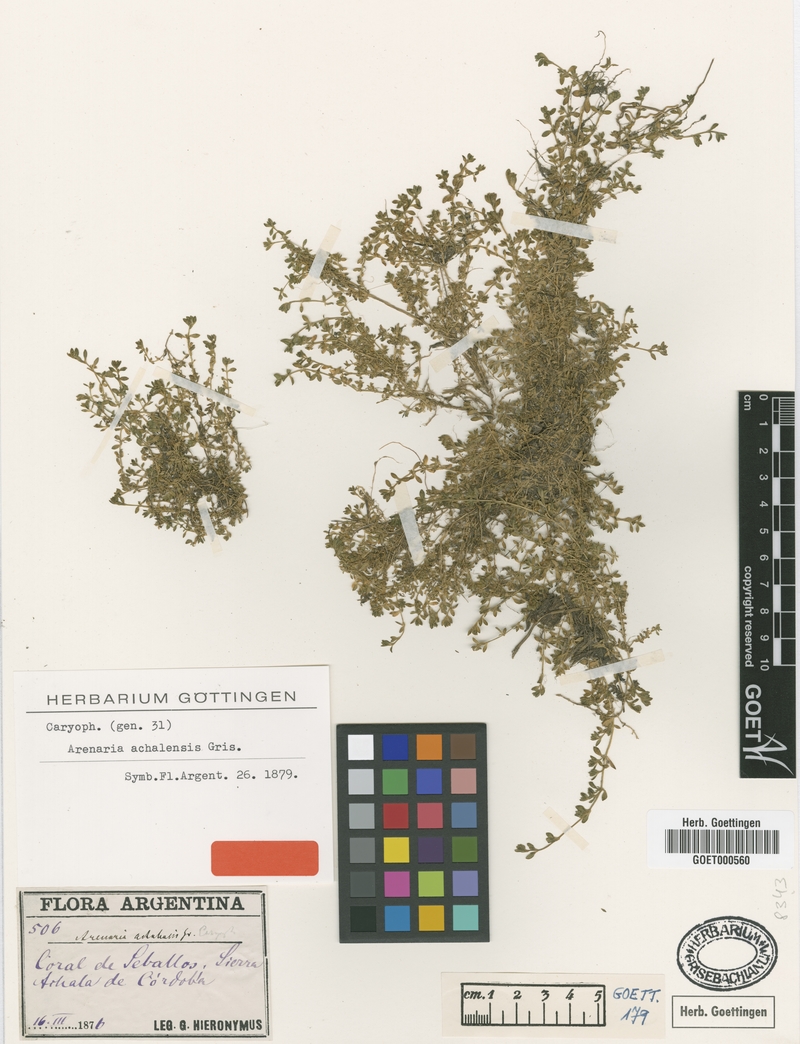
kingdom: Plantae
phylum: Tracheophyta
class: Magnoliopsida
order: Caryophyllales
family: Caryophyllaceae
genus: Arenaria
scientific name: Arenaria achalensis
